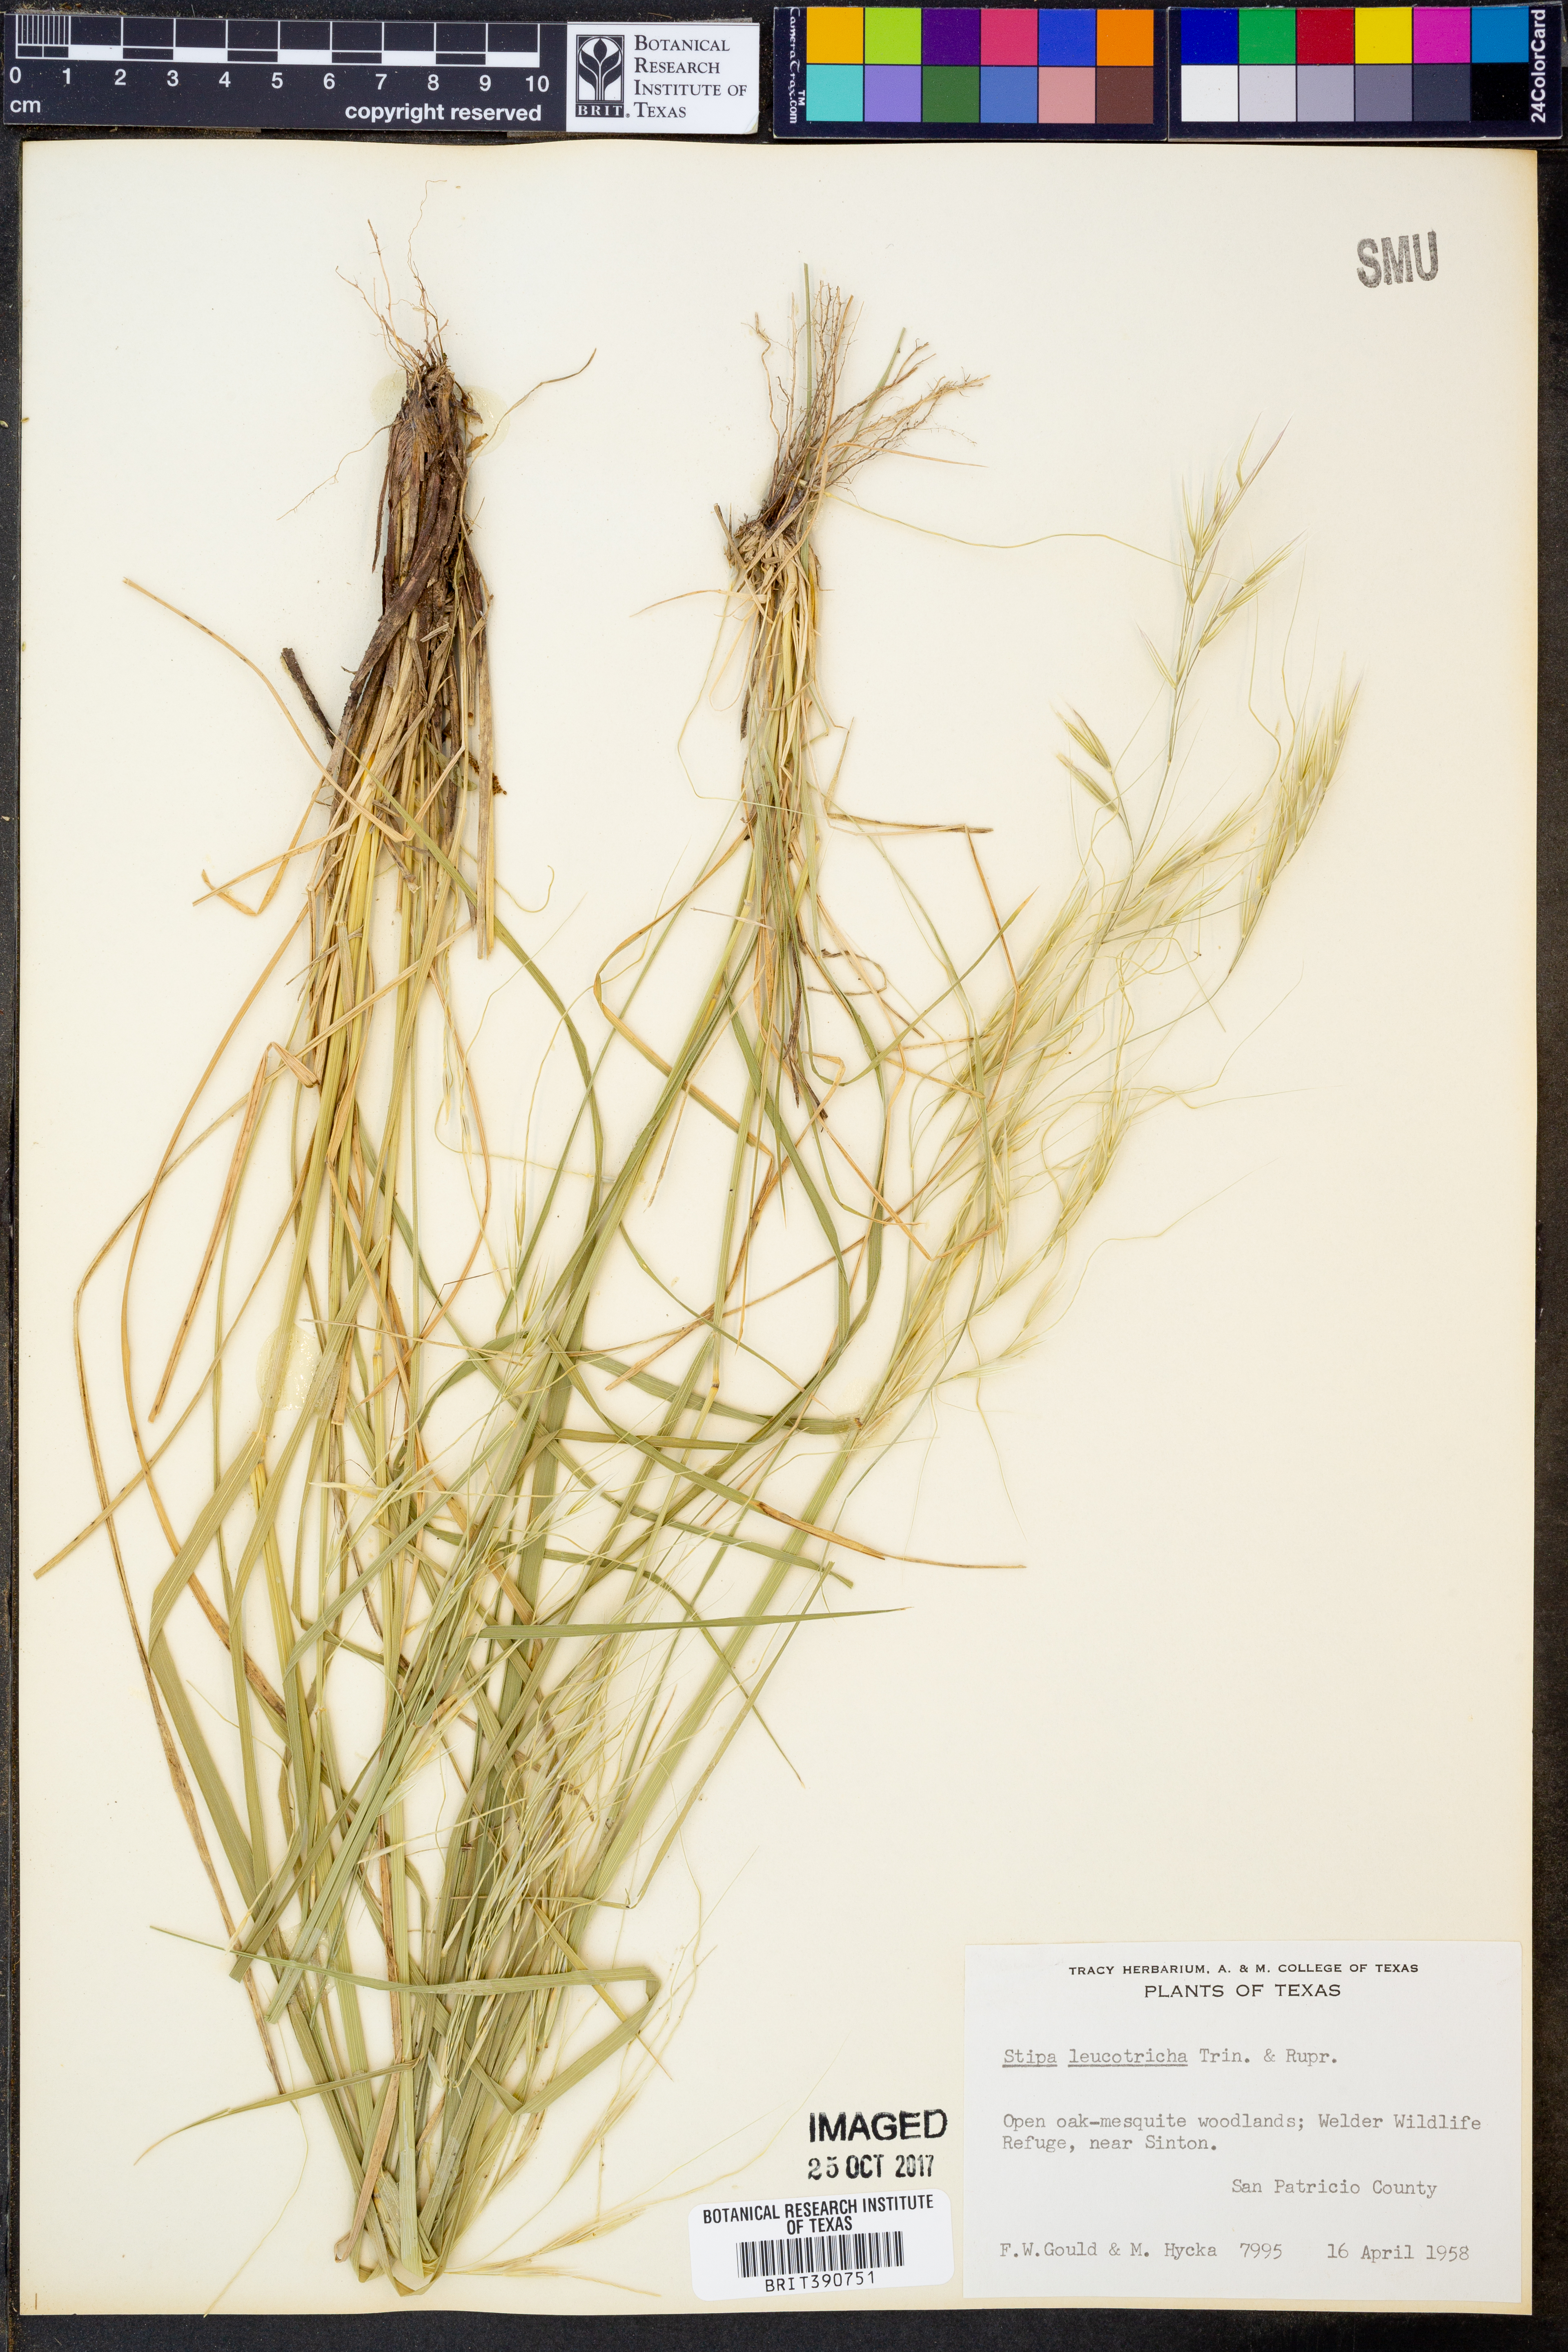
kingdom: Plantae
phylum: Tracheophyta
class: Liliopsida
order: Poales
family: Poaceae
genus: Nassella
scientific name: Nassella leucotricha
